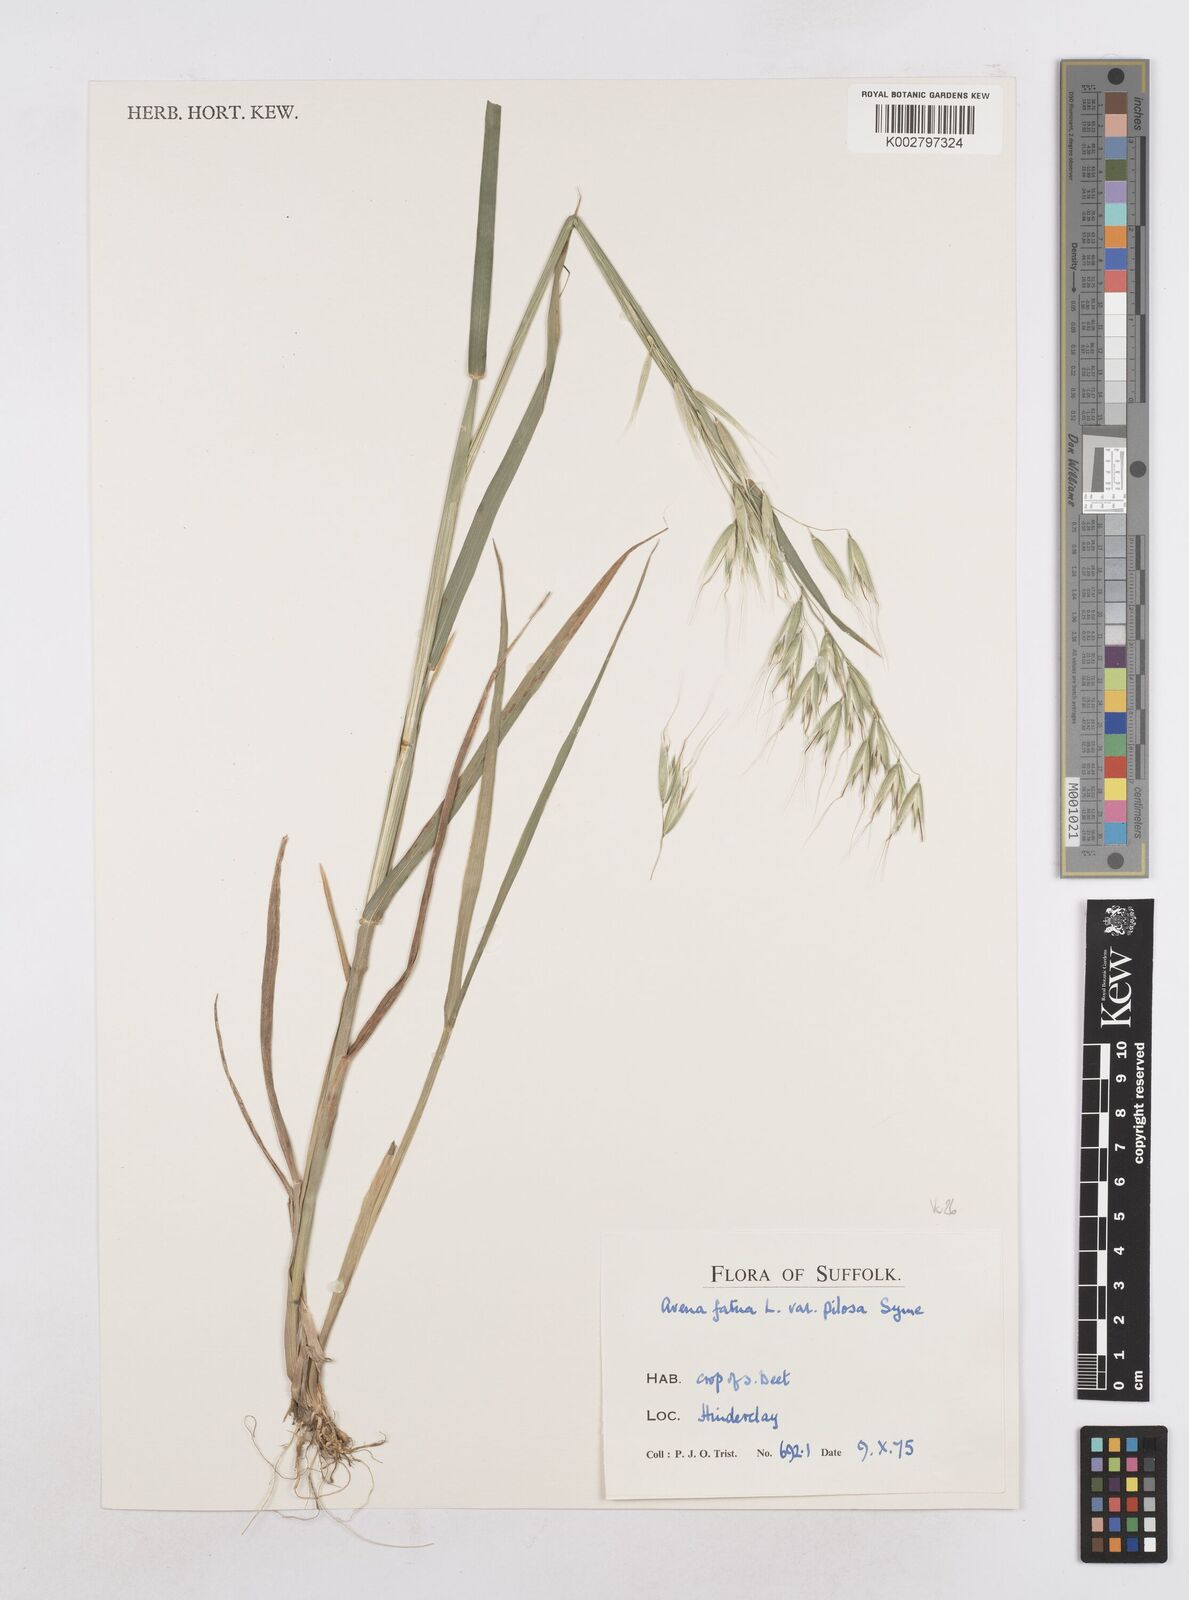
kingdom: Plantae
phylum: Tracheophyta
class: Liliopsida
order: Poales
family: Poaceae
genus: Avena
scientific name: Avena fatua
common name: Wild oat
